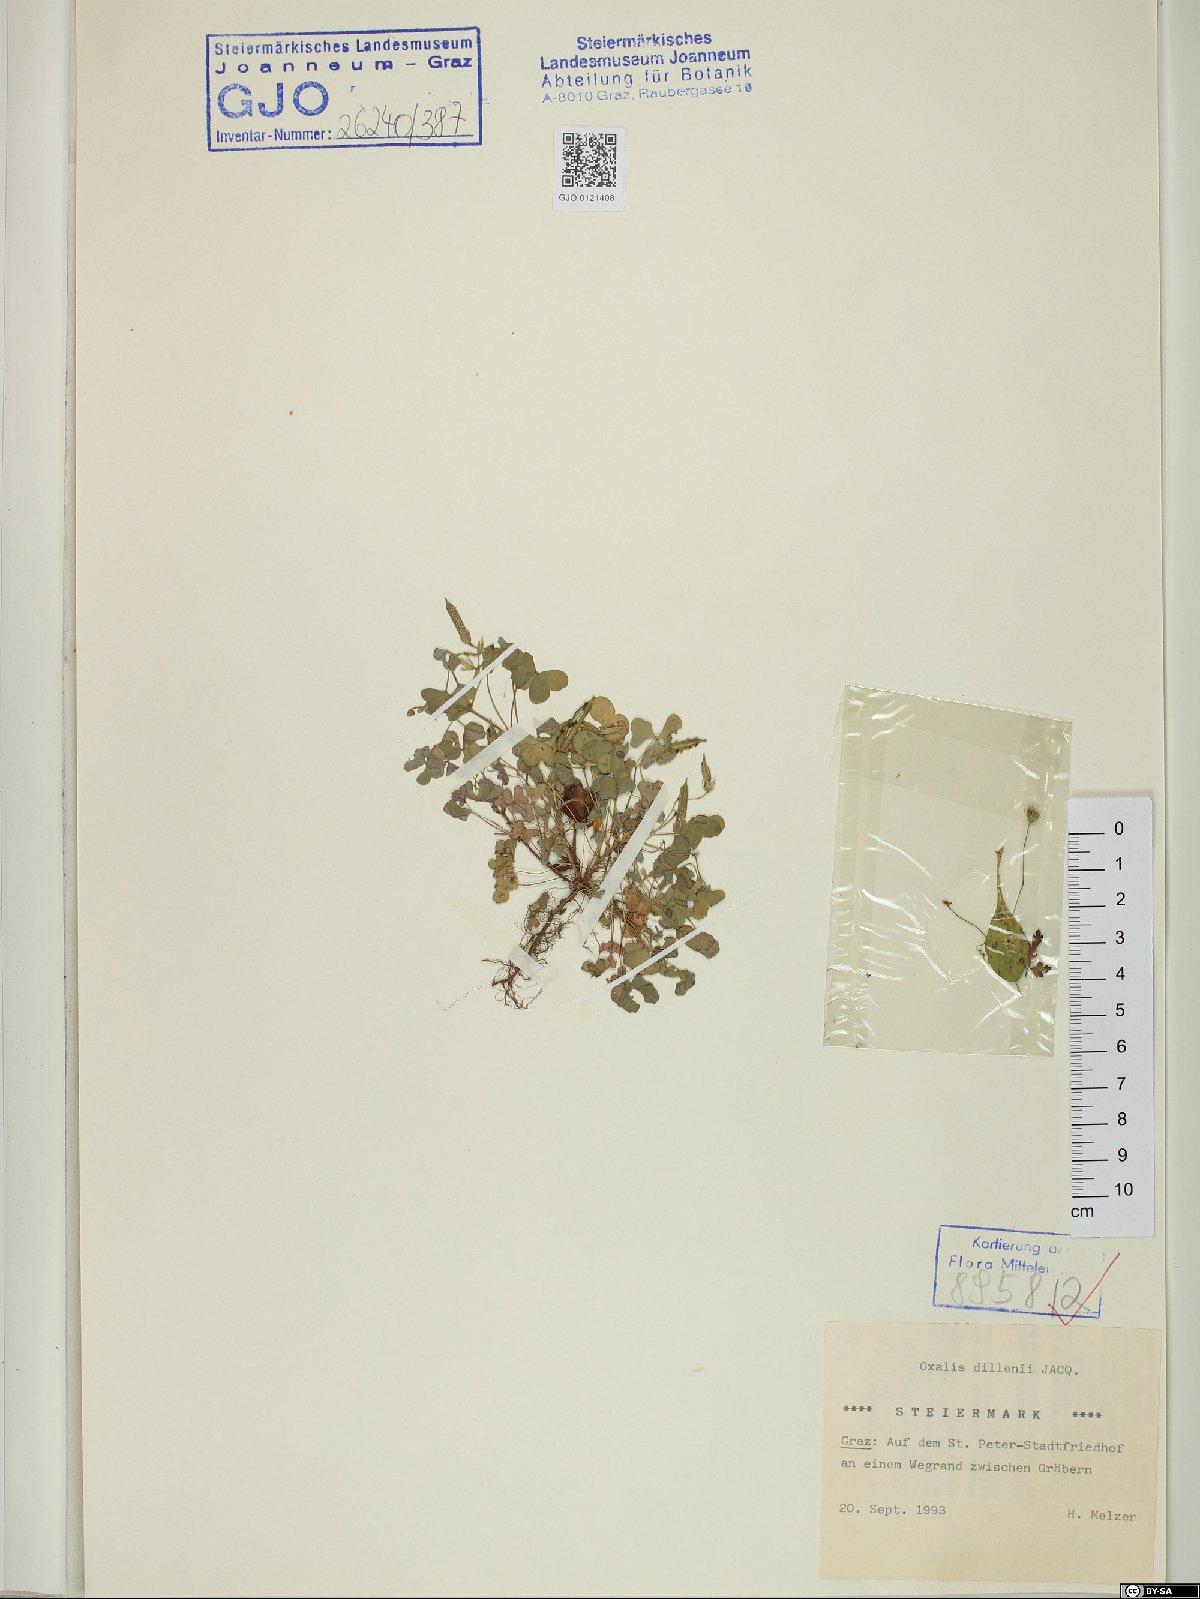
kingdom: Plantae
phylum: Tracheophyta
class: Magnoliopsida
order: Oxalidales
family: Oxalidaceae
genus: Oxalis
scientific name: Oxalis dillenii
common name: Sussex yellow-sorrel
